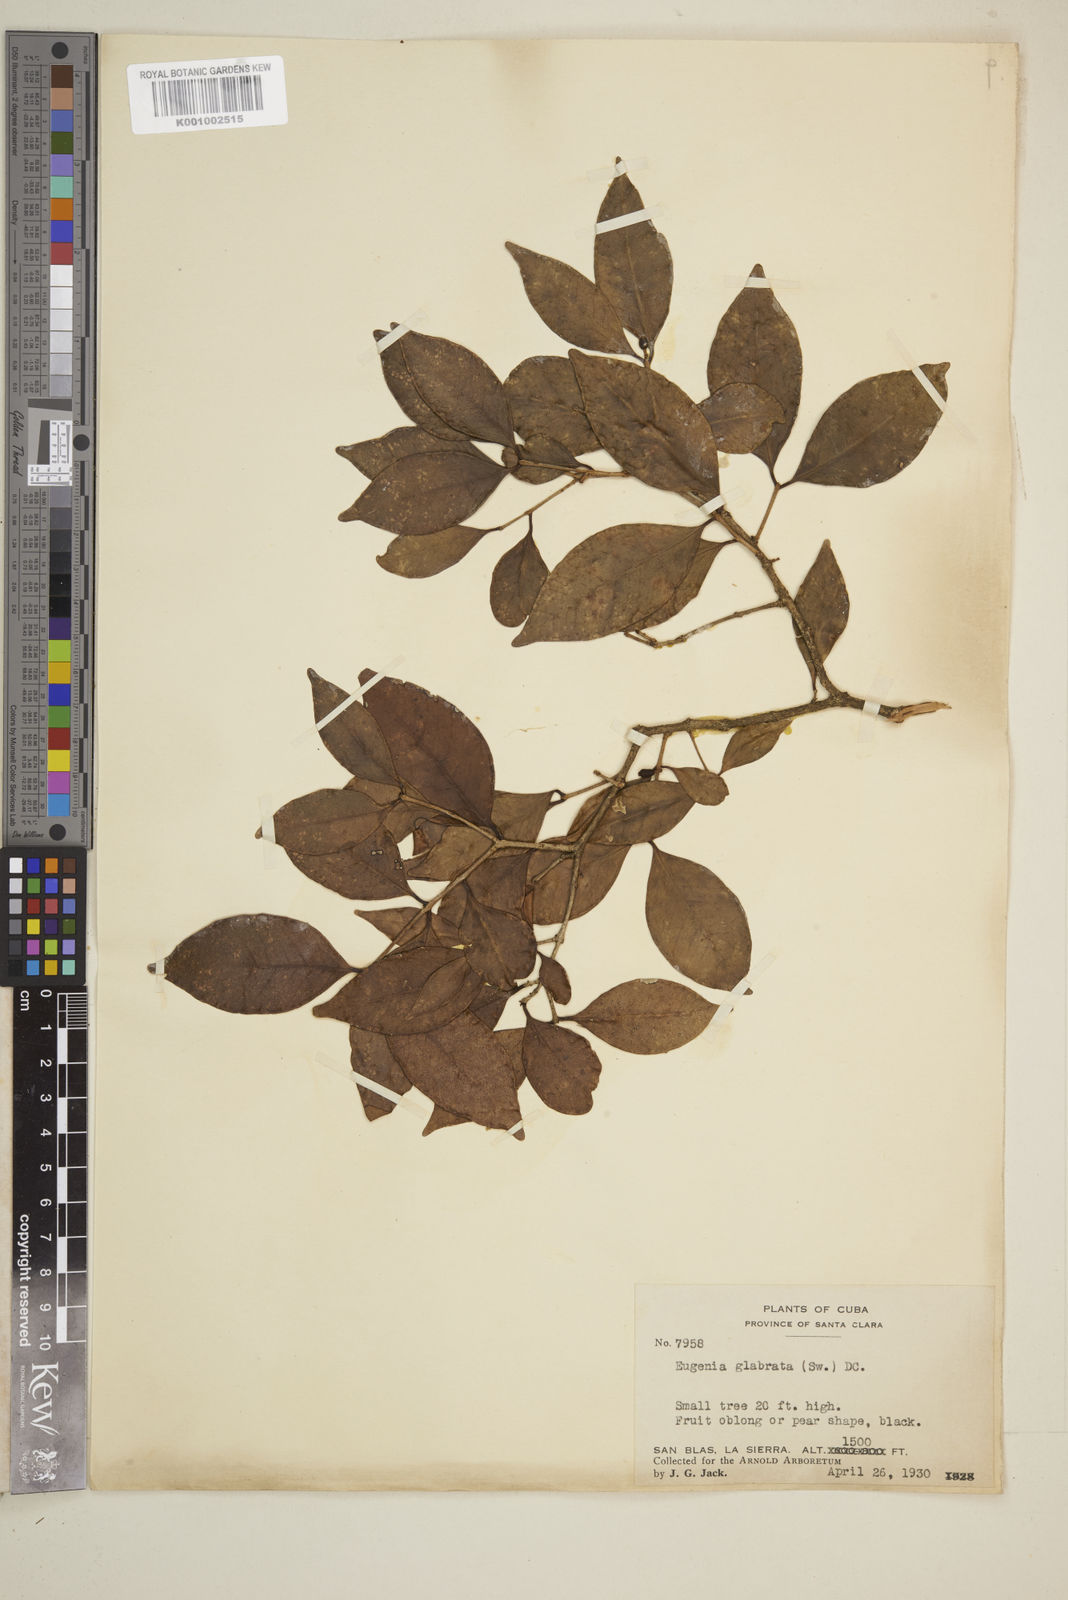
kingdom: Plantae
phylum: Tracheophyta
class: Magnoliopsida
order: Myrtales
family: Myrtaceae
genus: Eugenia
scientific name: Eugenia glabrata
